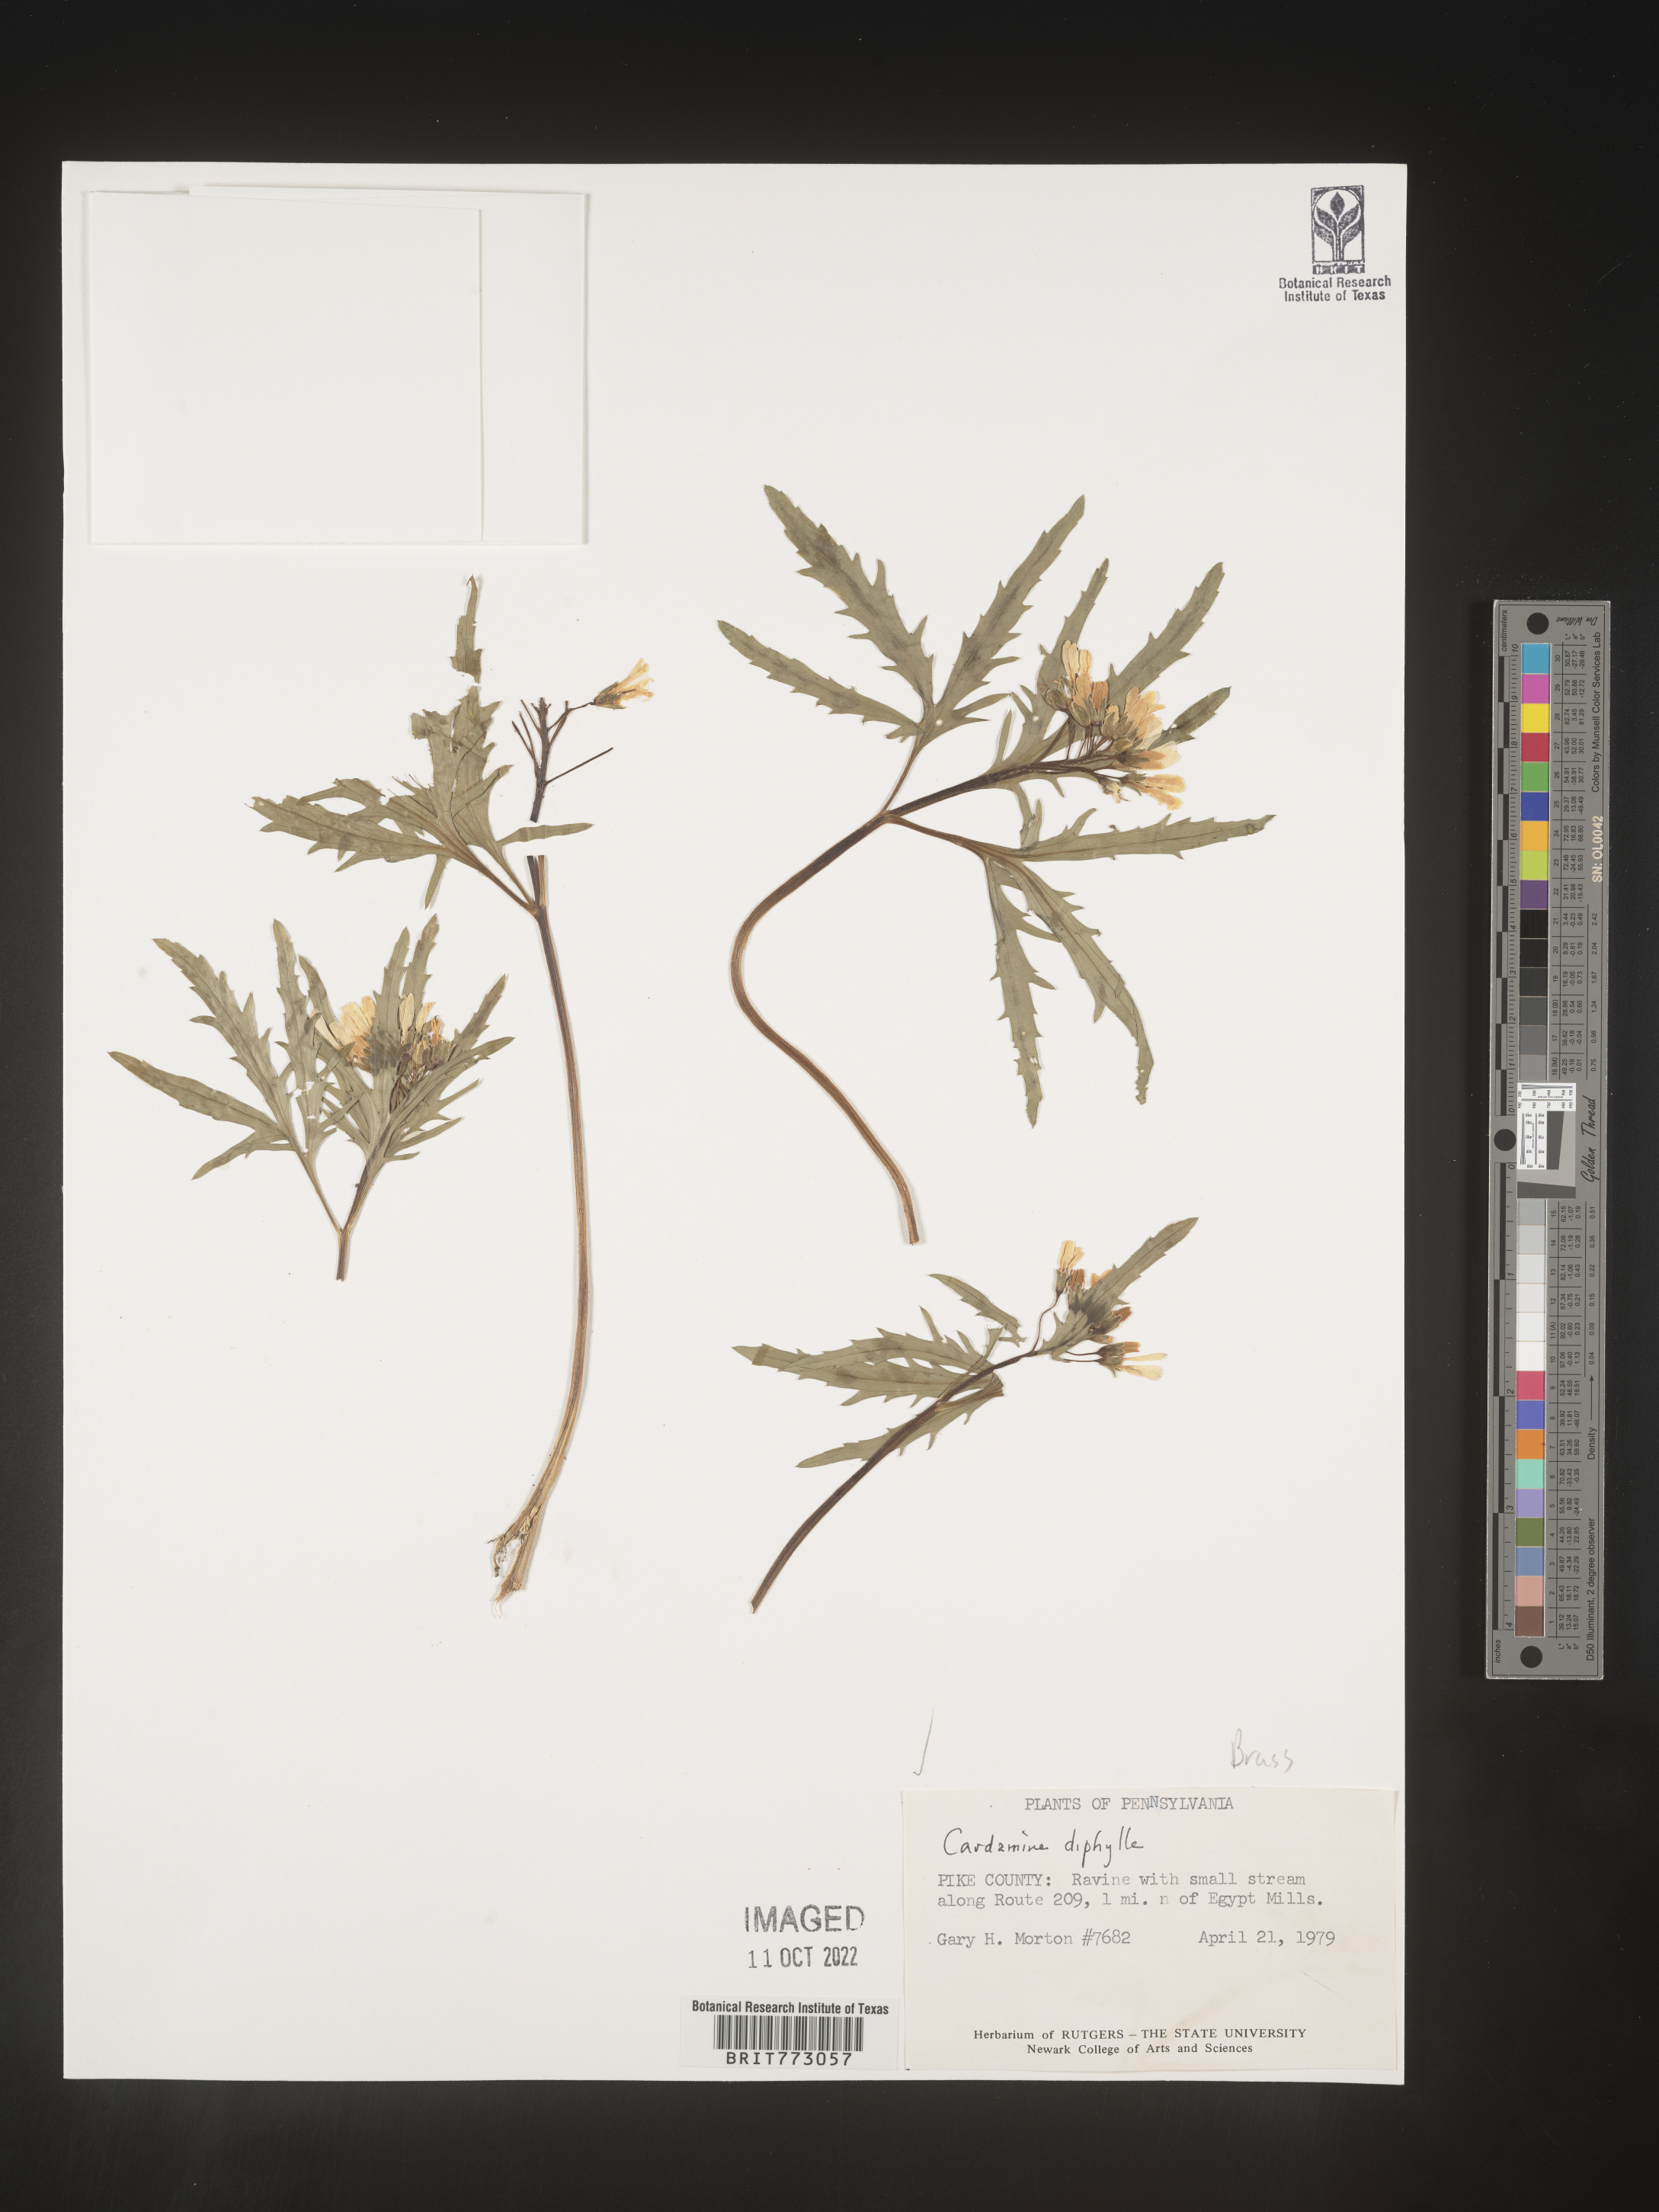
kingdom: Plantae
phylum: Tracheophyta
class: Magnoliopsida
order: Brassicales
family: Brassicaceae
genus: Cardamine
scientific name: Cardamine diphylla
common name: Broad-leaved toothwort
